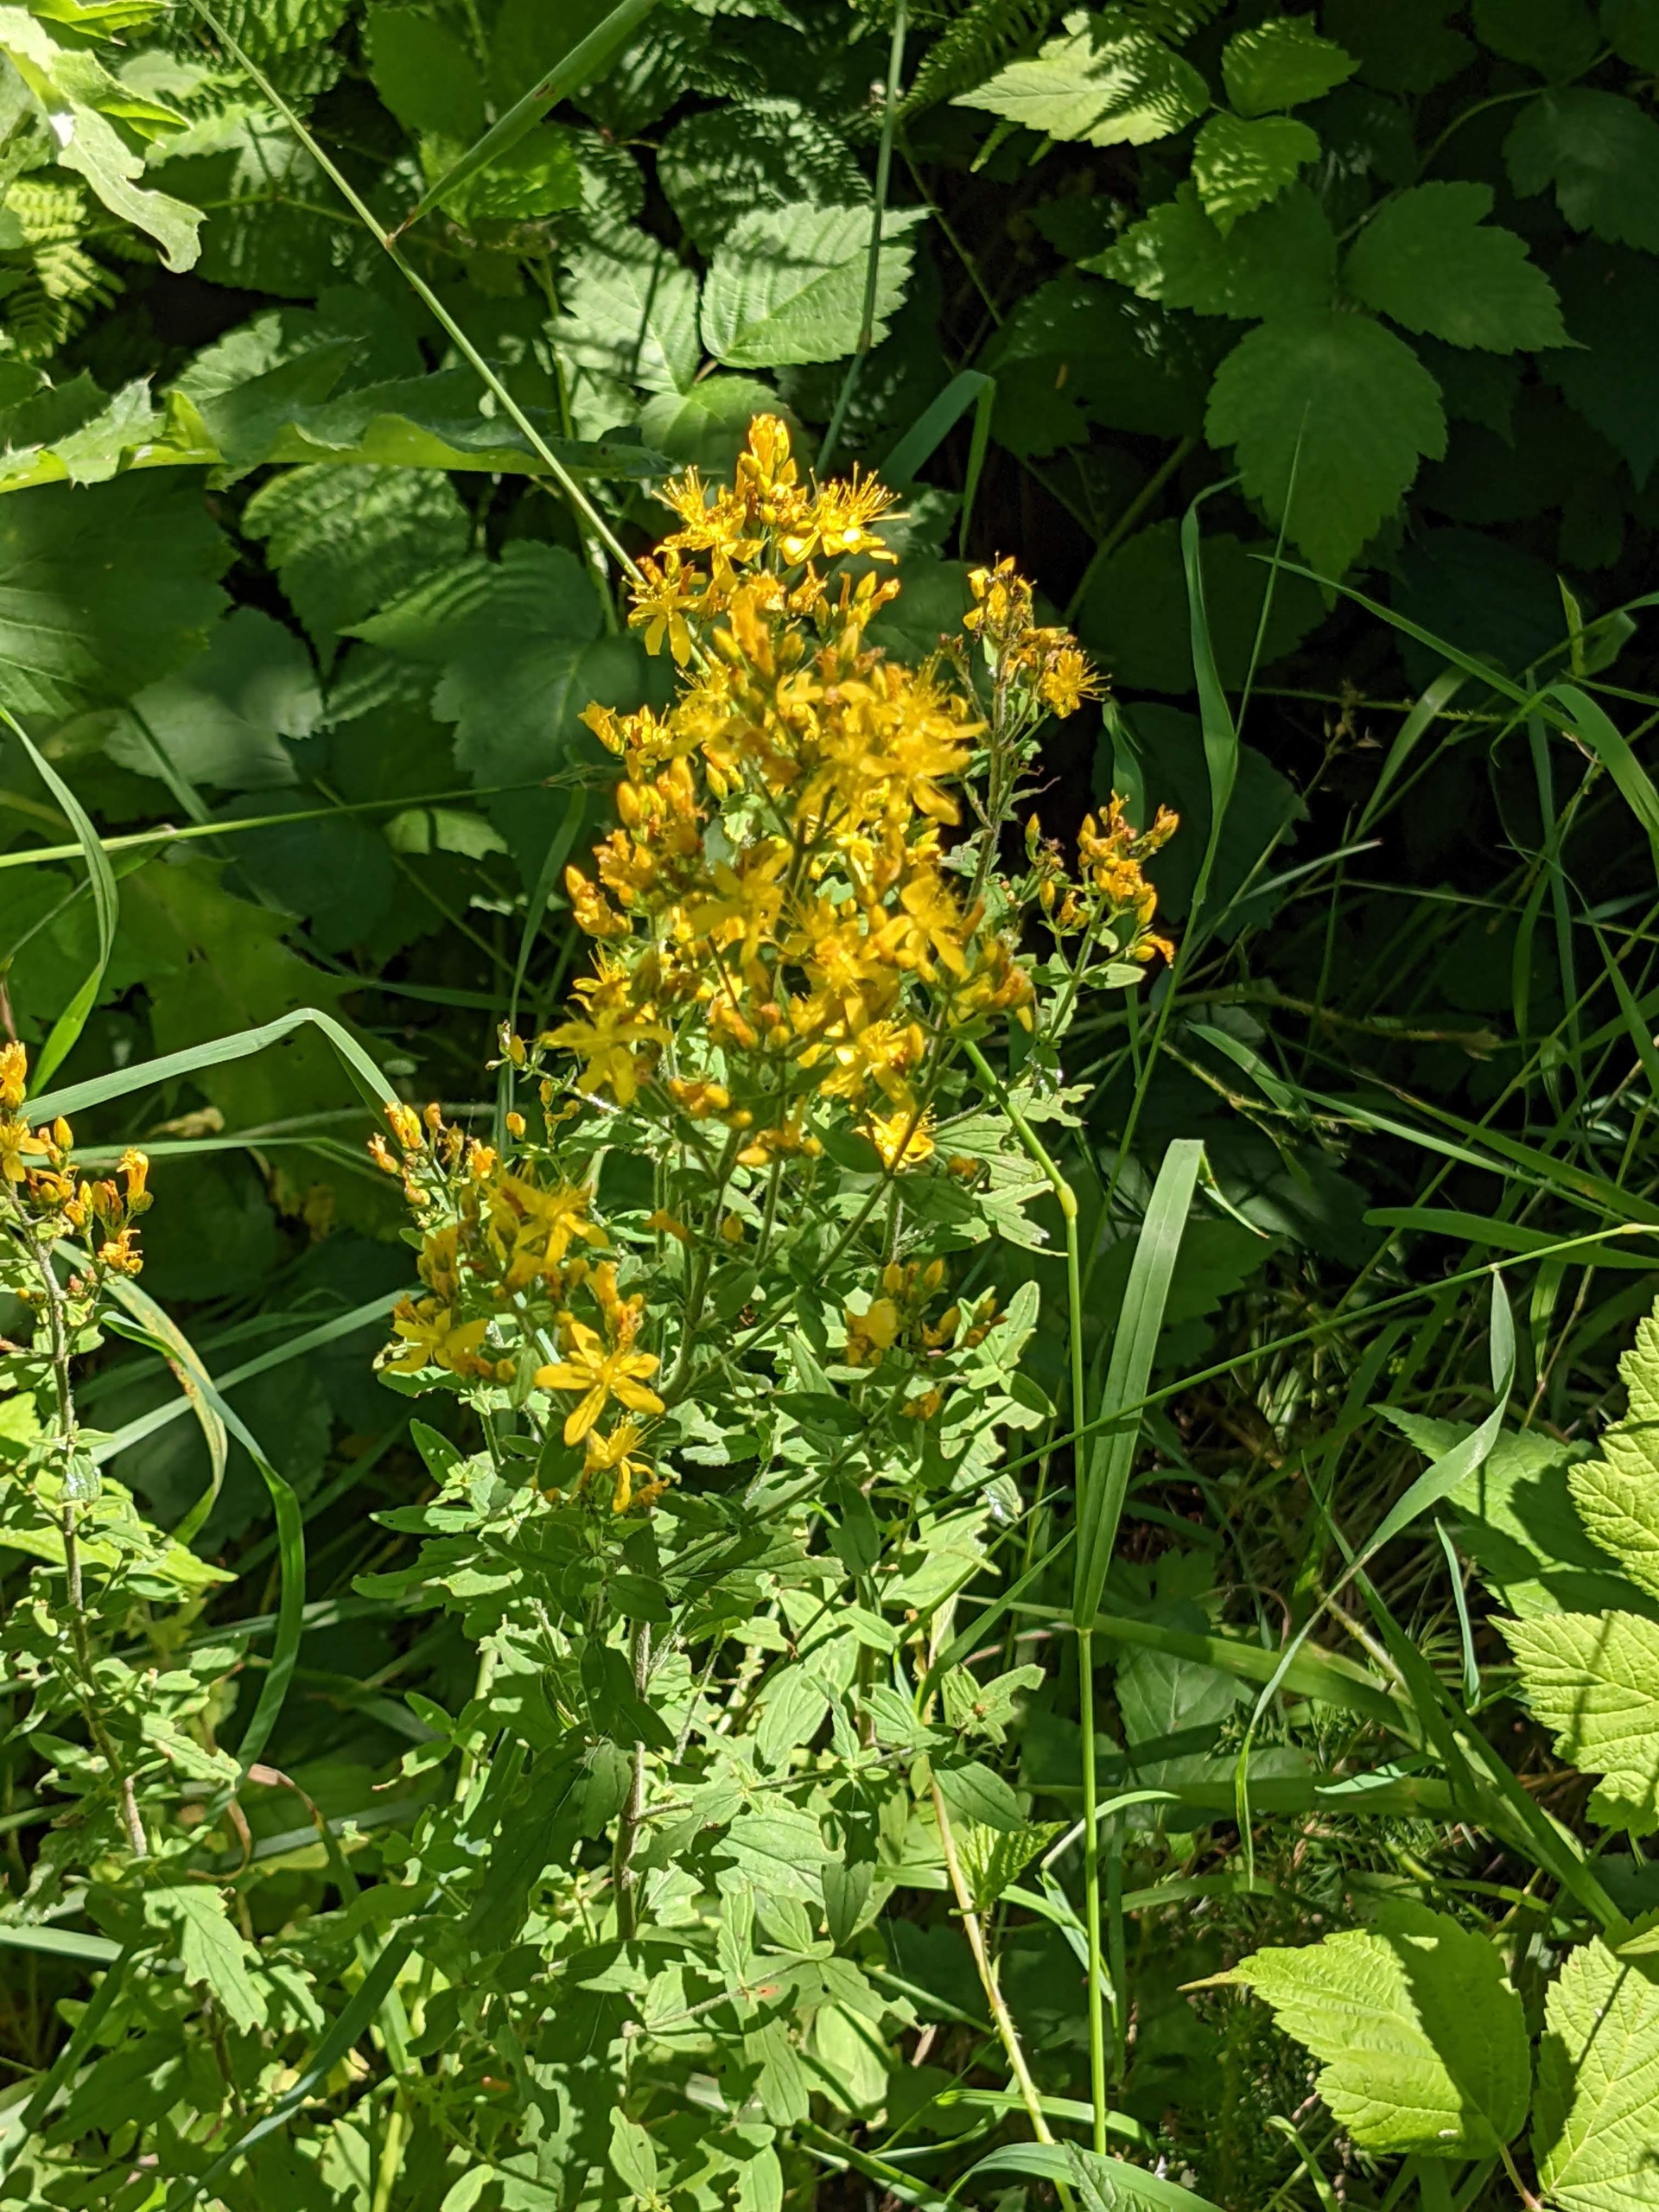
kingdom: Plantae
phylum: Tracheophyta
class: Magnoliopsida
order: Malpighiales
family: Hypericaceae
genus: Hypericum
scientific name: Hypericum hirsutum
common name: Lådden perikon
